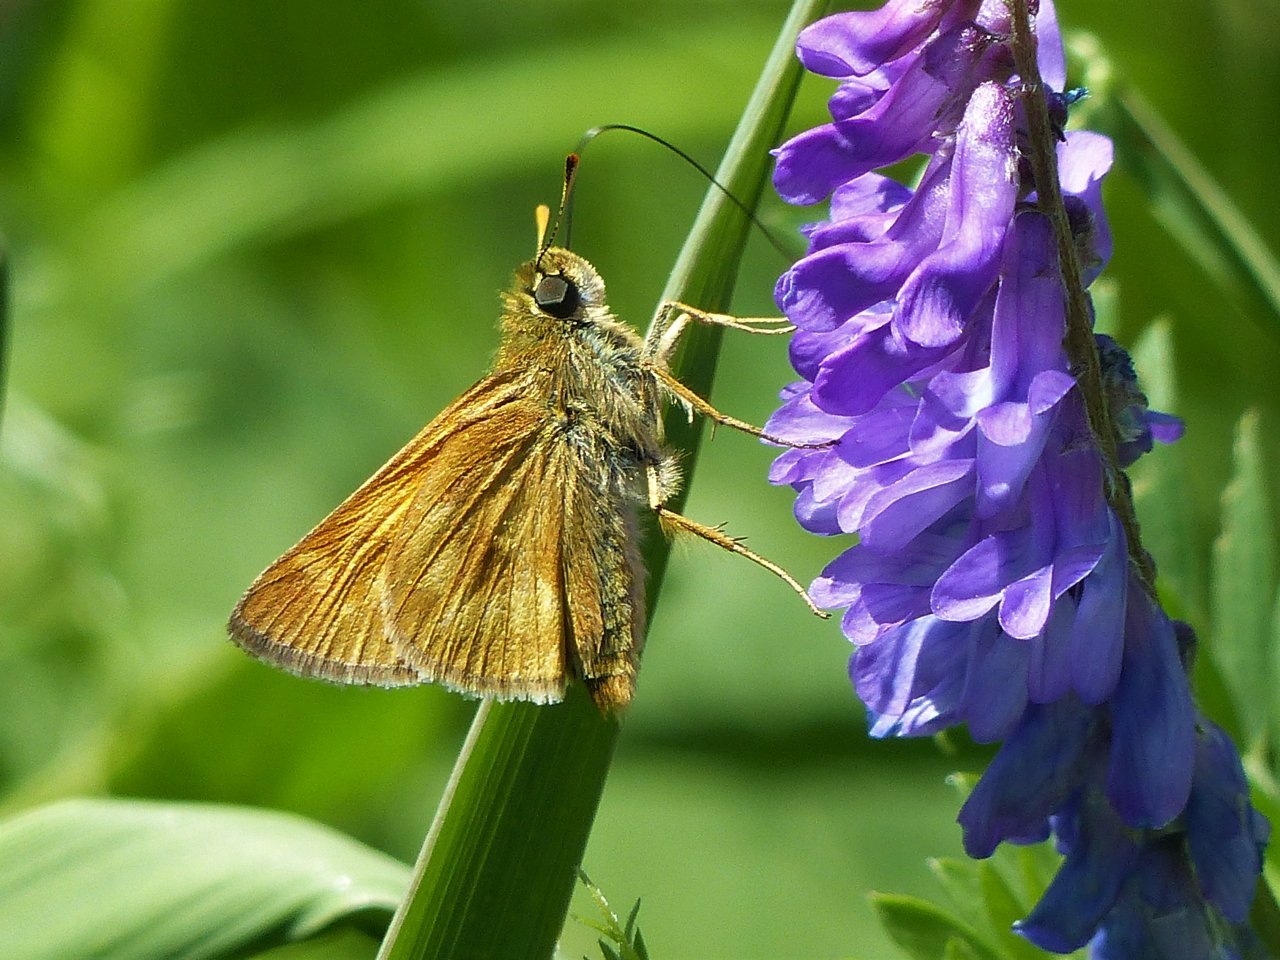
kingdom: Animalia
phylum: Arthropoda
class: Insecta
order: Lepidoptera
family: Hesperiidae
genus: Polites
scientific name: Polites
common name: Long Dash Skipper
